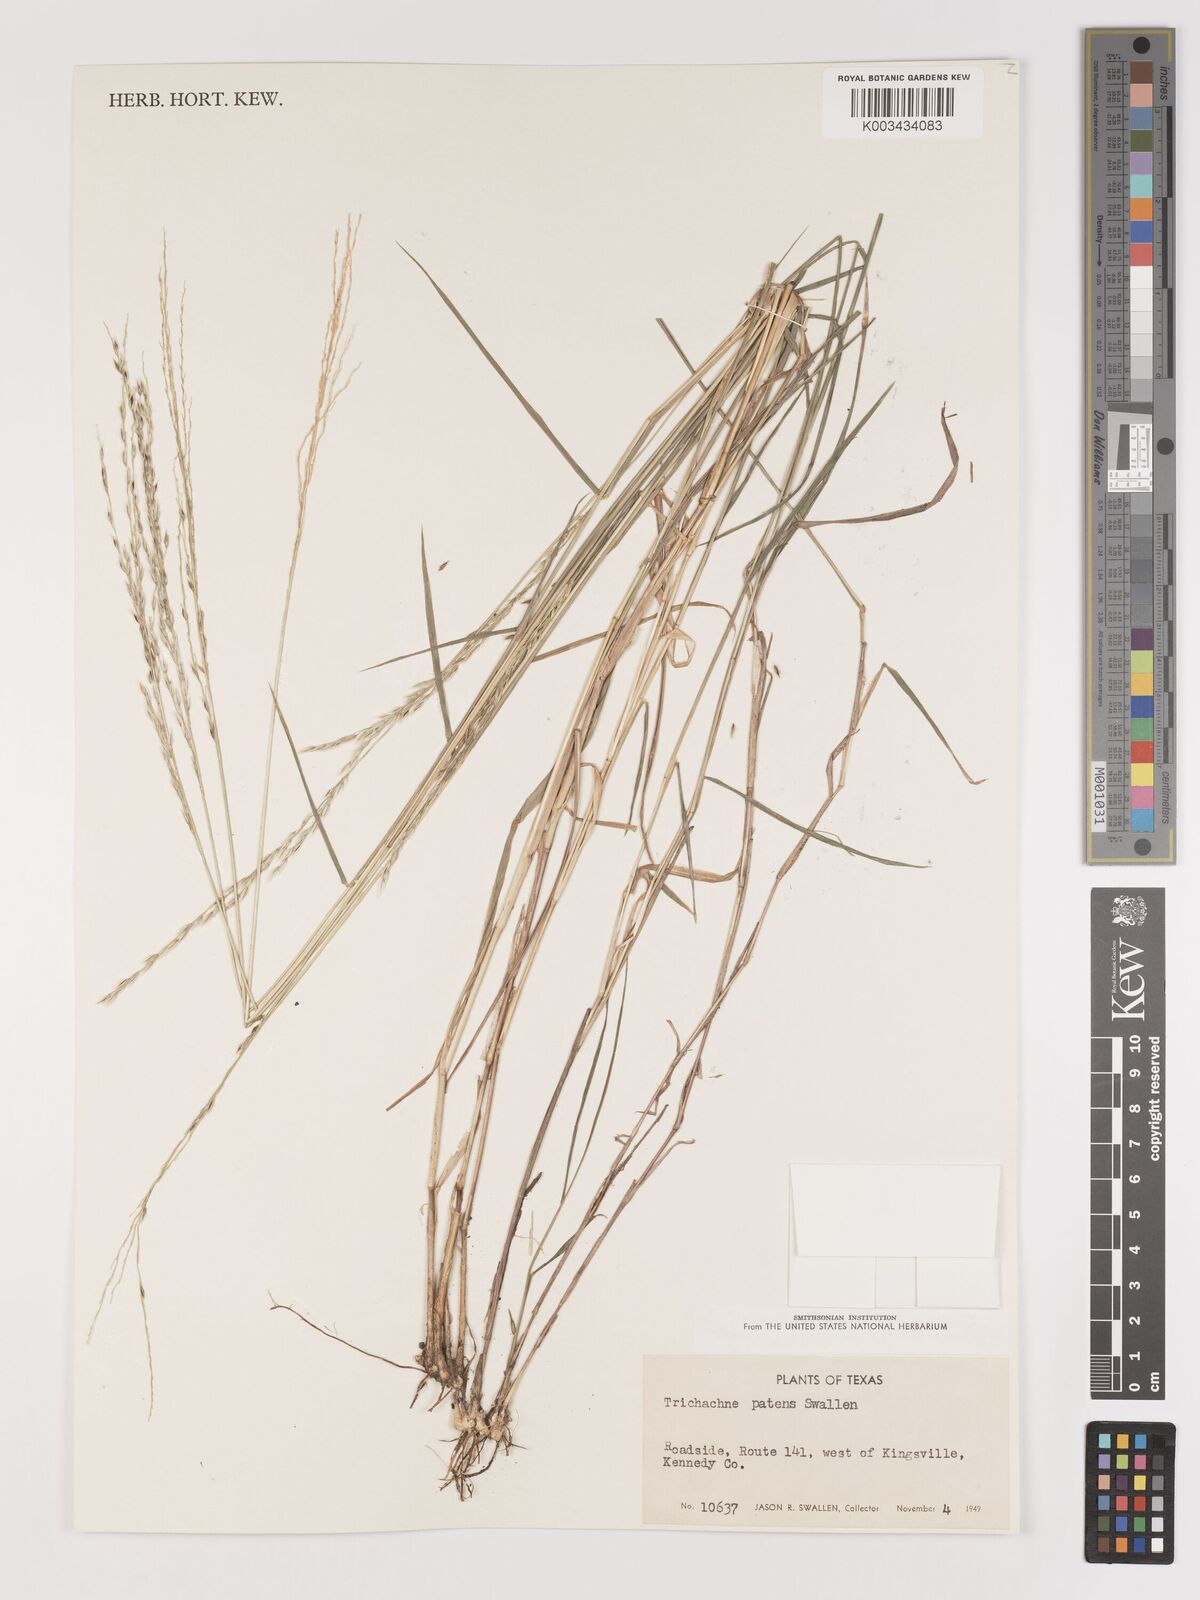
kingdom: Plantae
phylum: Tracheophyta
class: Liliopsida
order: Poales
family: Poaceae
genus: Digitaria
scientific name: Digitaria patens
